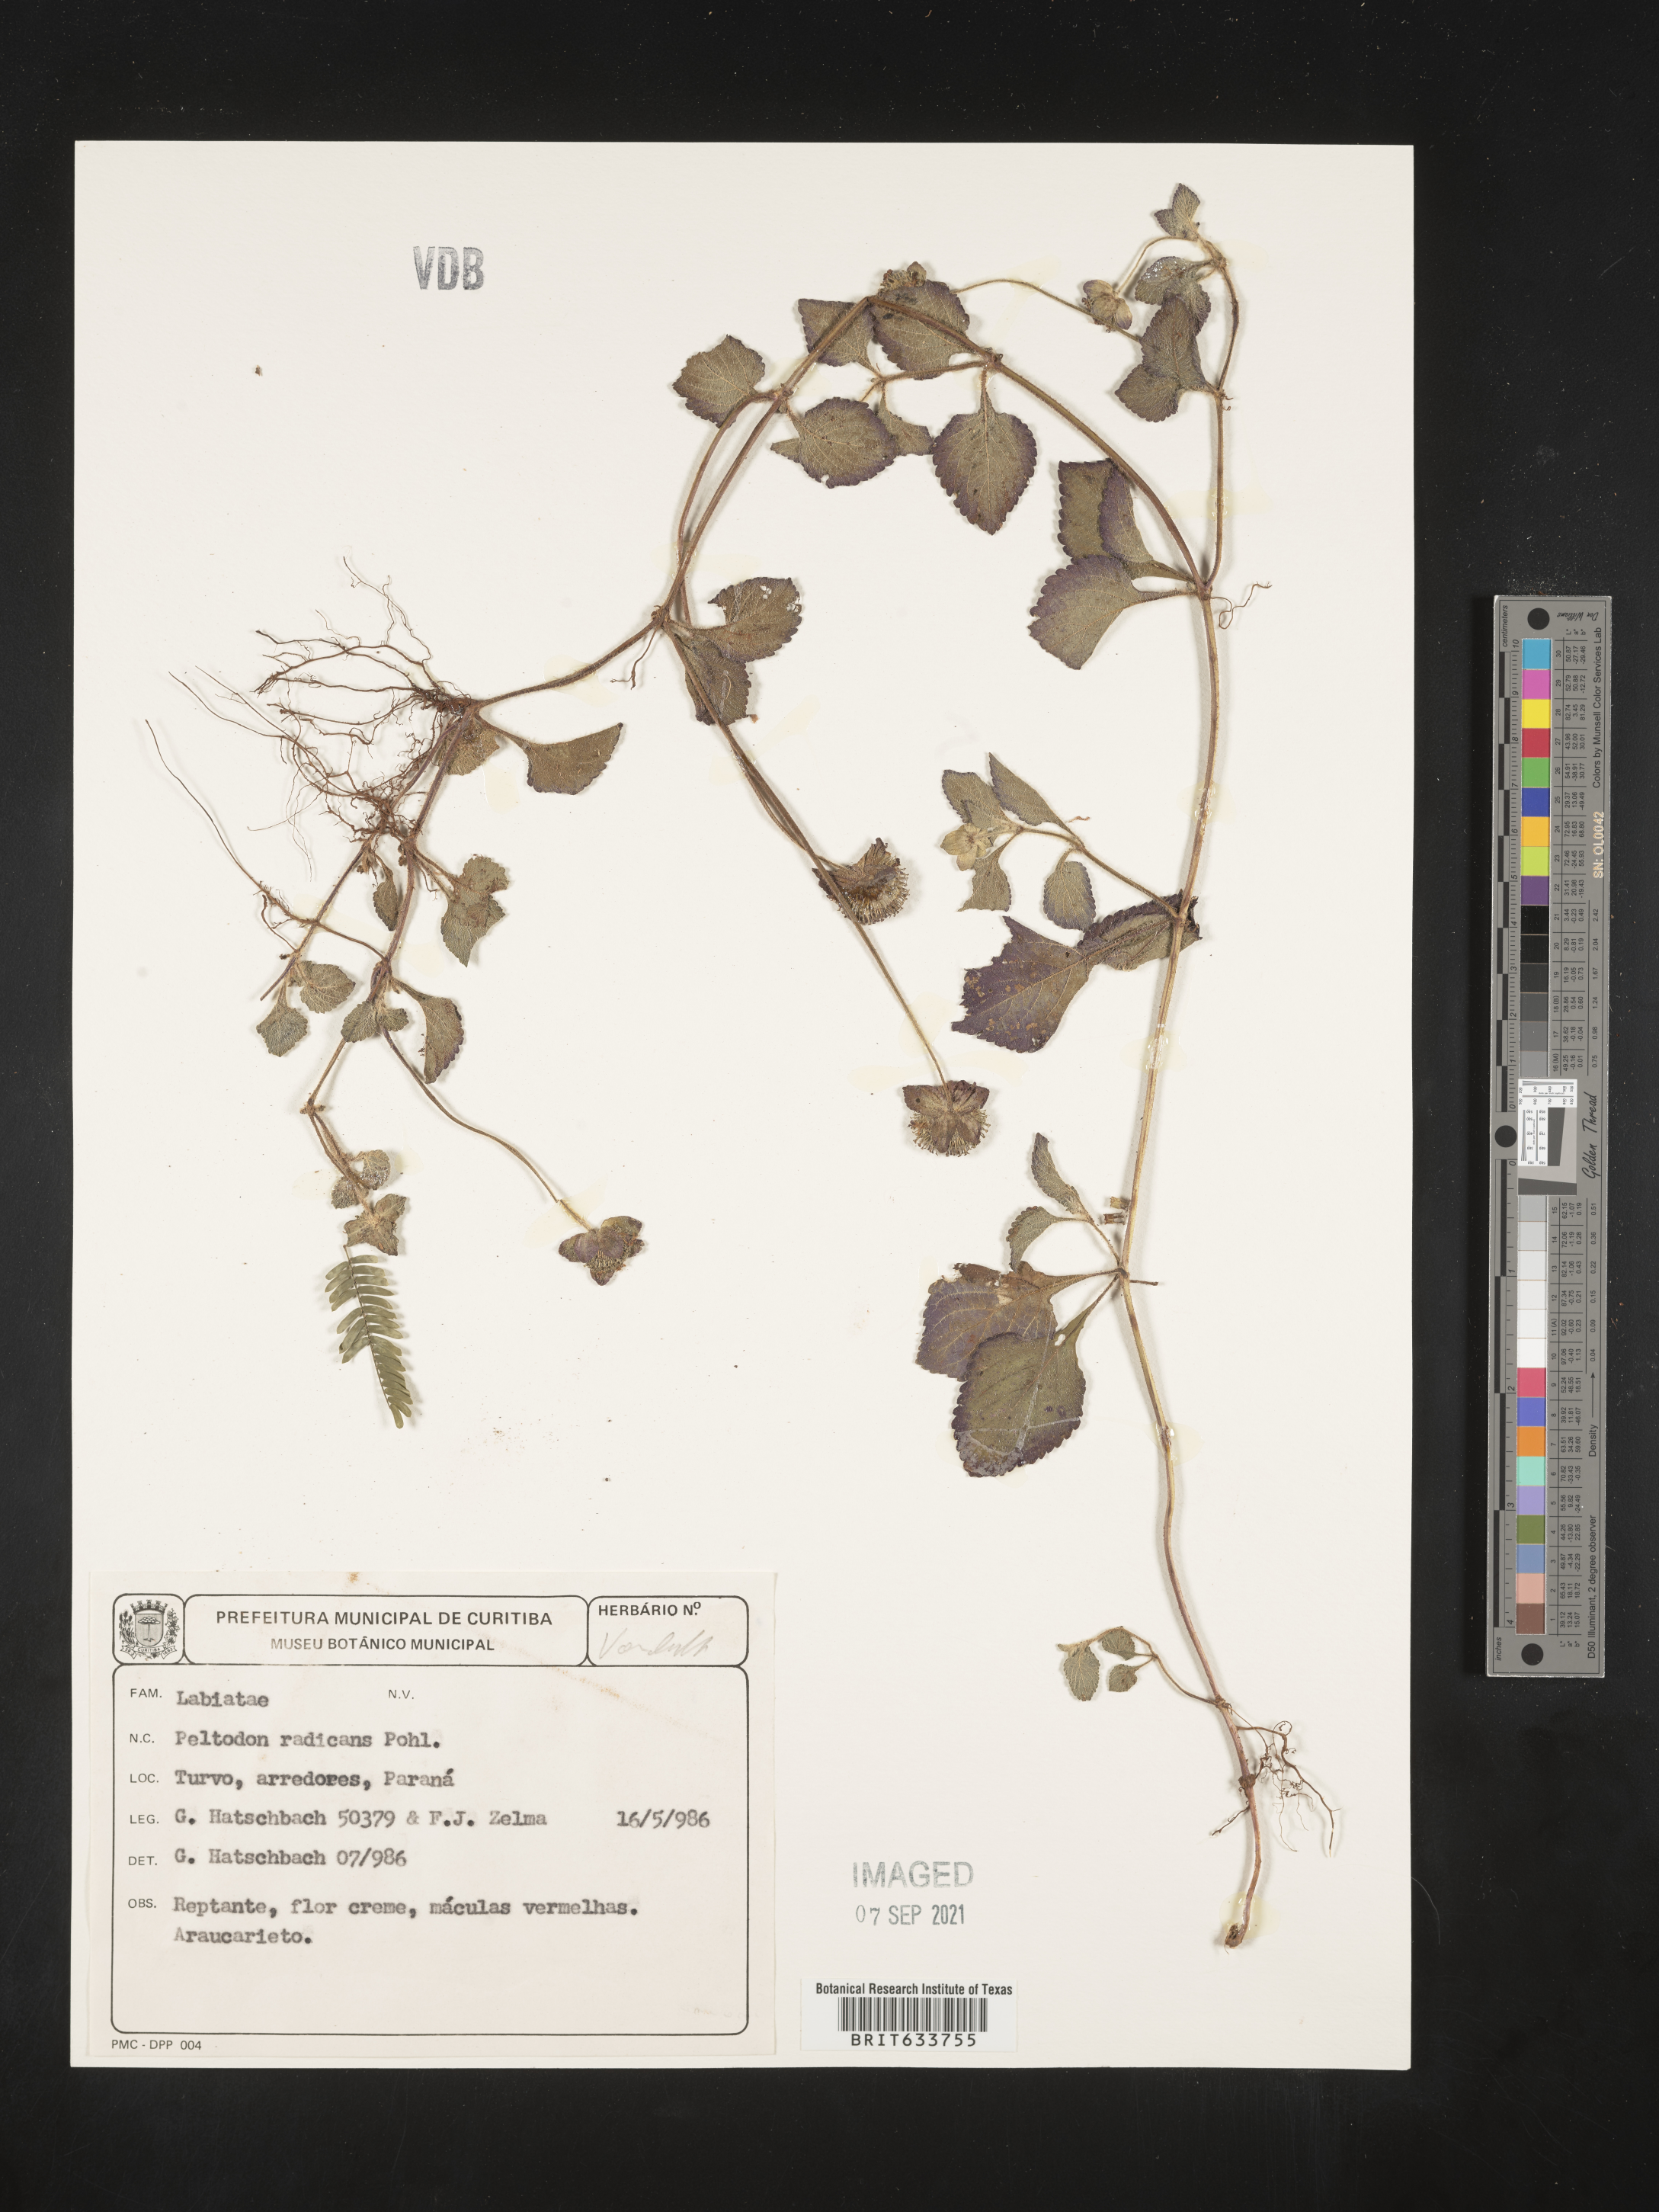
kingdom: Plantae
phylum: Tracheophyta
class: Magnoliopsida
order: Lamiales
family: Lamiaceae
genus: Hyptis
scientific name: Hyptis
